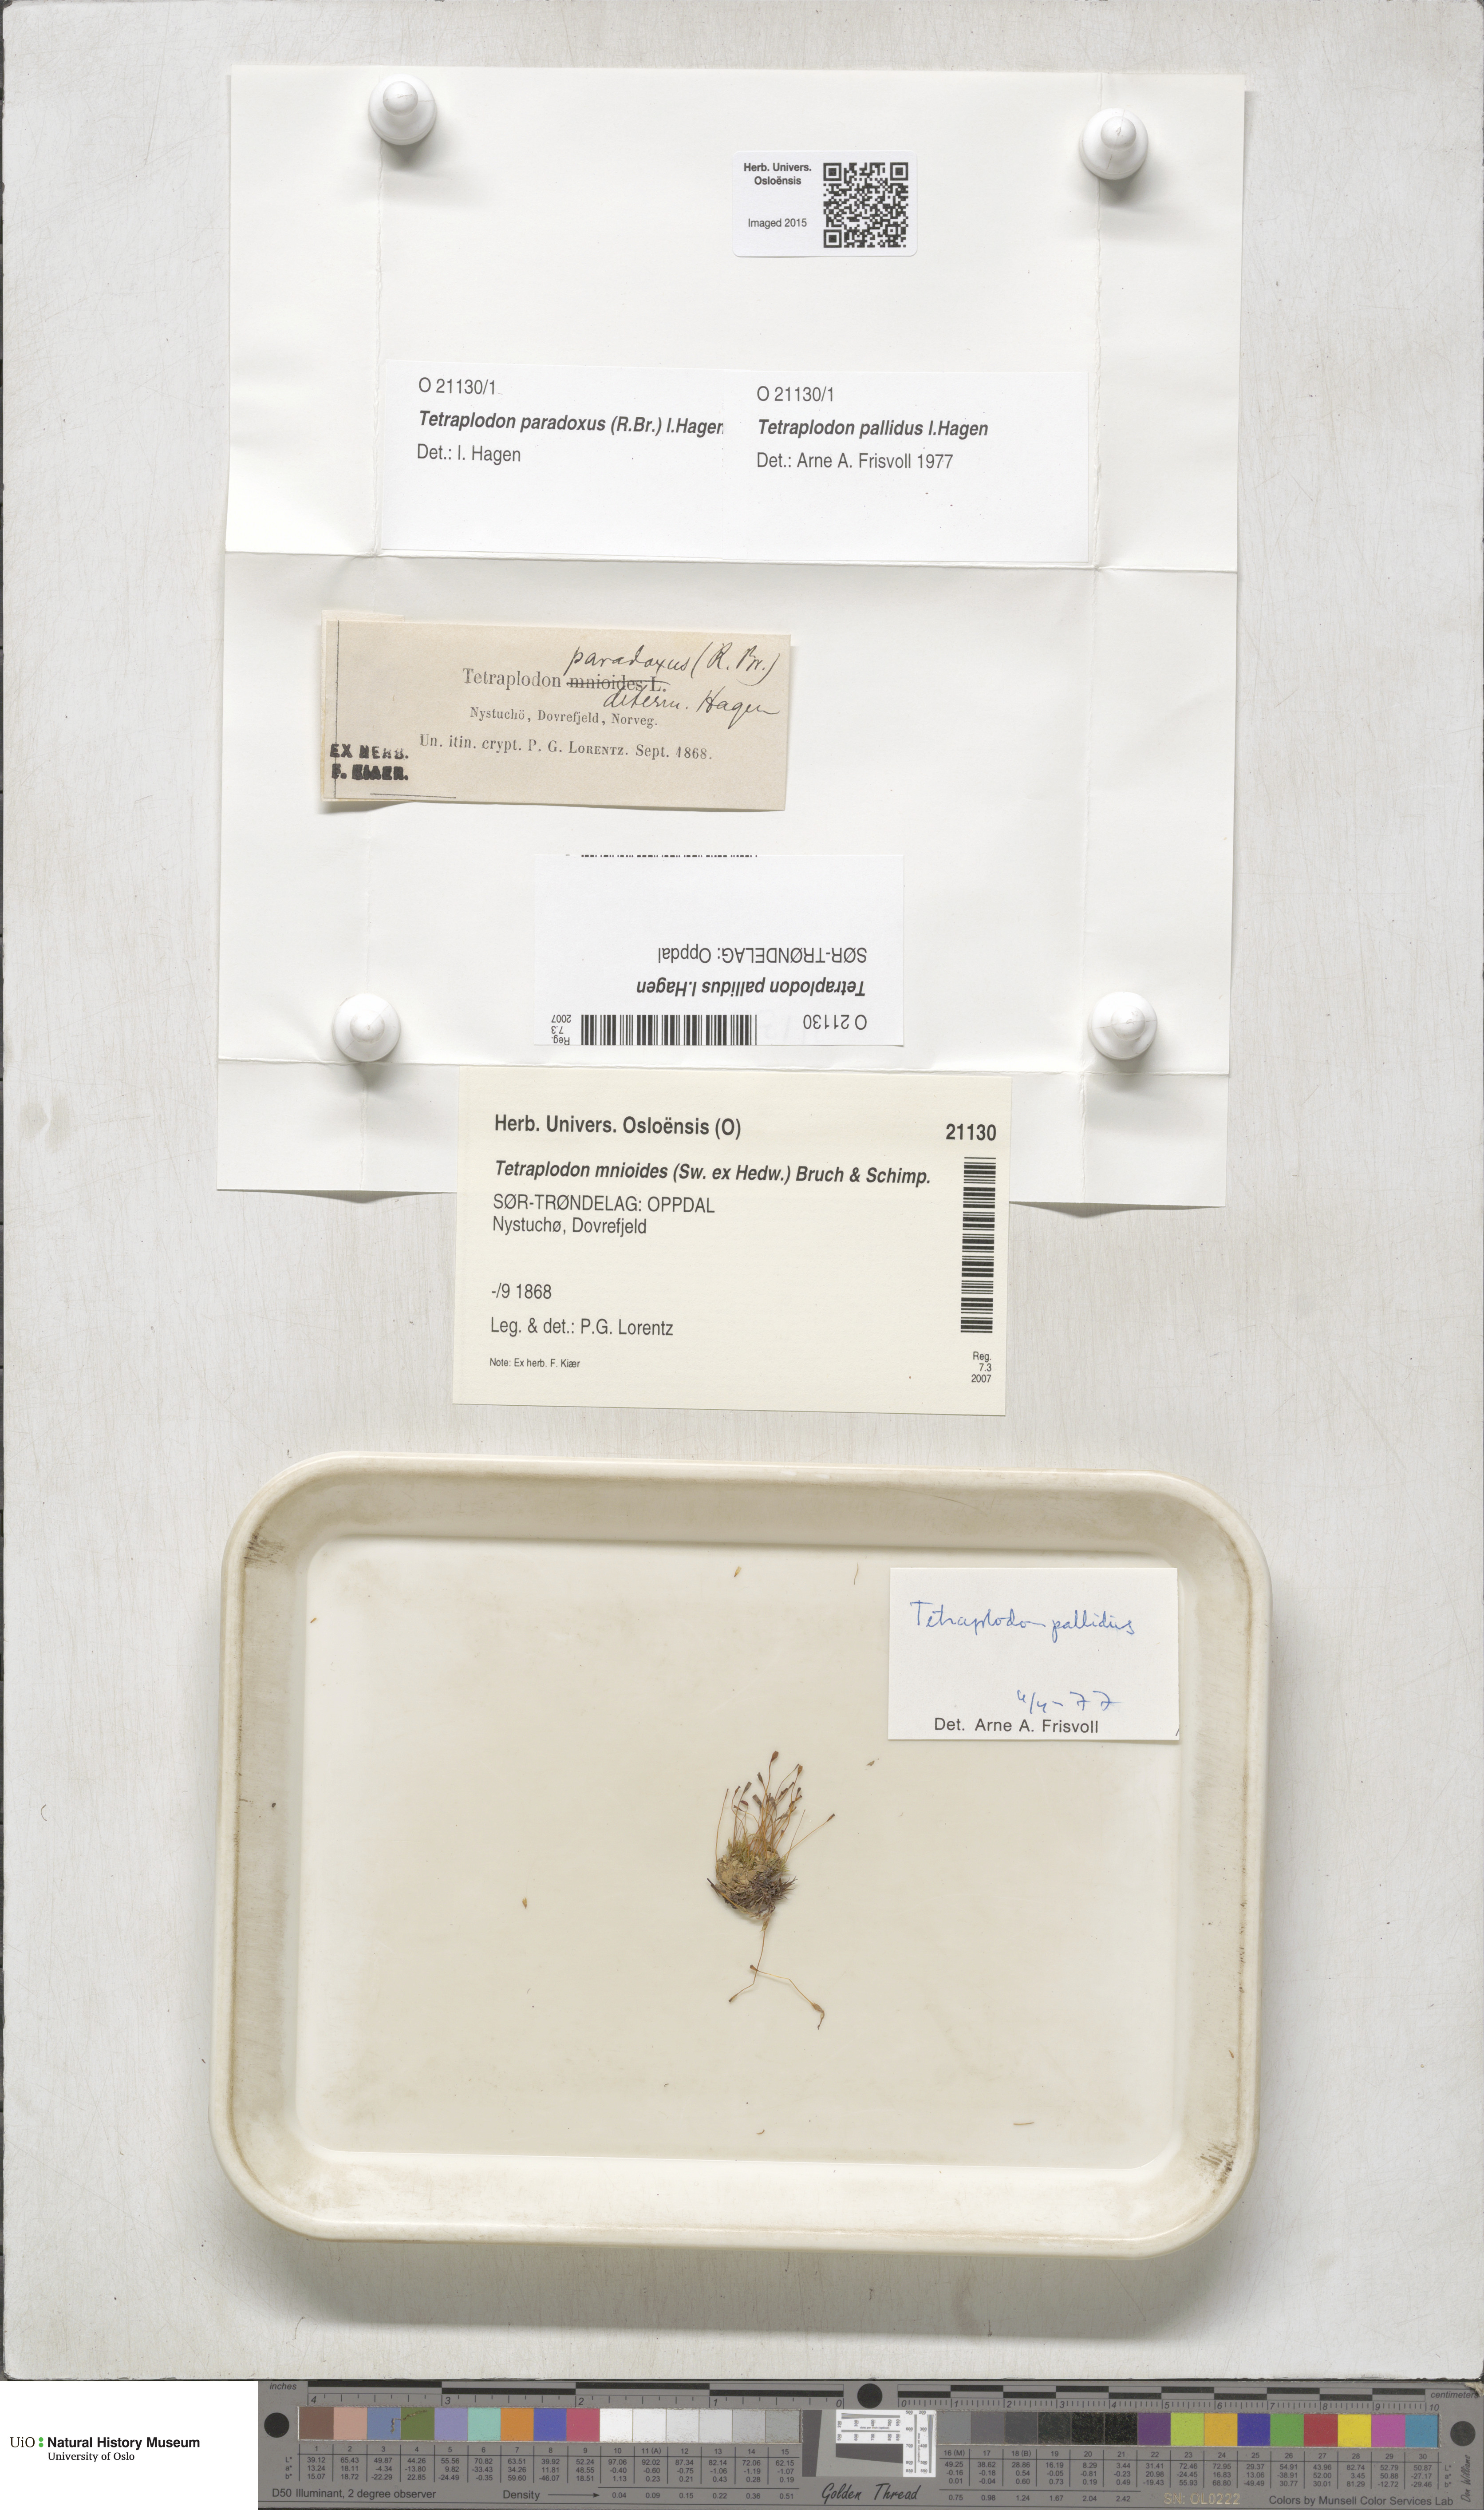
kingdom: Plantae
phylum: Bryophyta
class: Bryopsida
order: Splachnales
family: Splachnaceae
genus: Tetraplodon
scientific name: Tetraplodon pallidus
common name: Pale nitrogen moss
